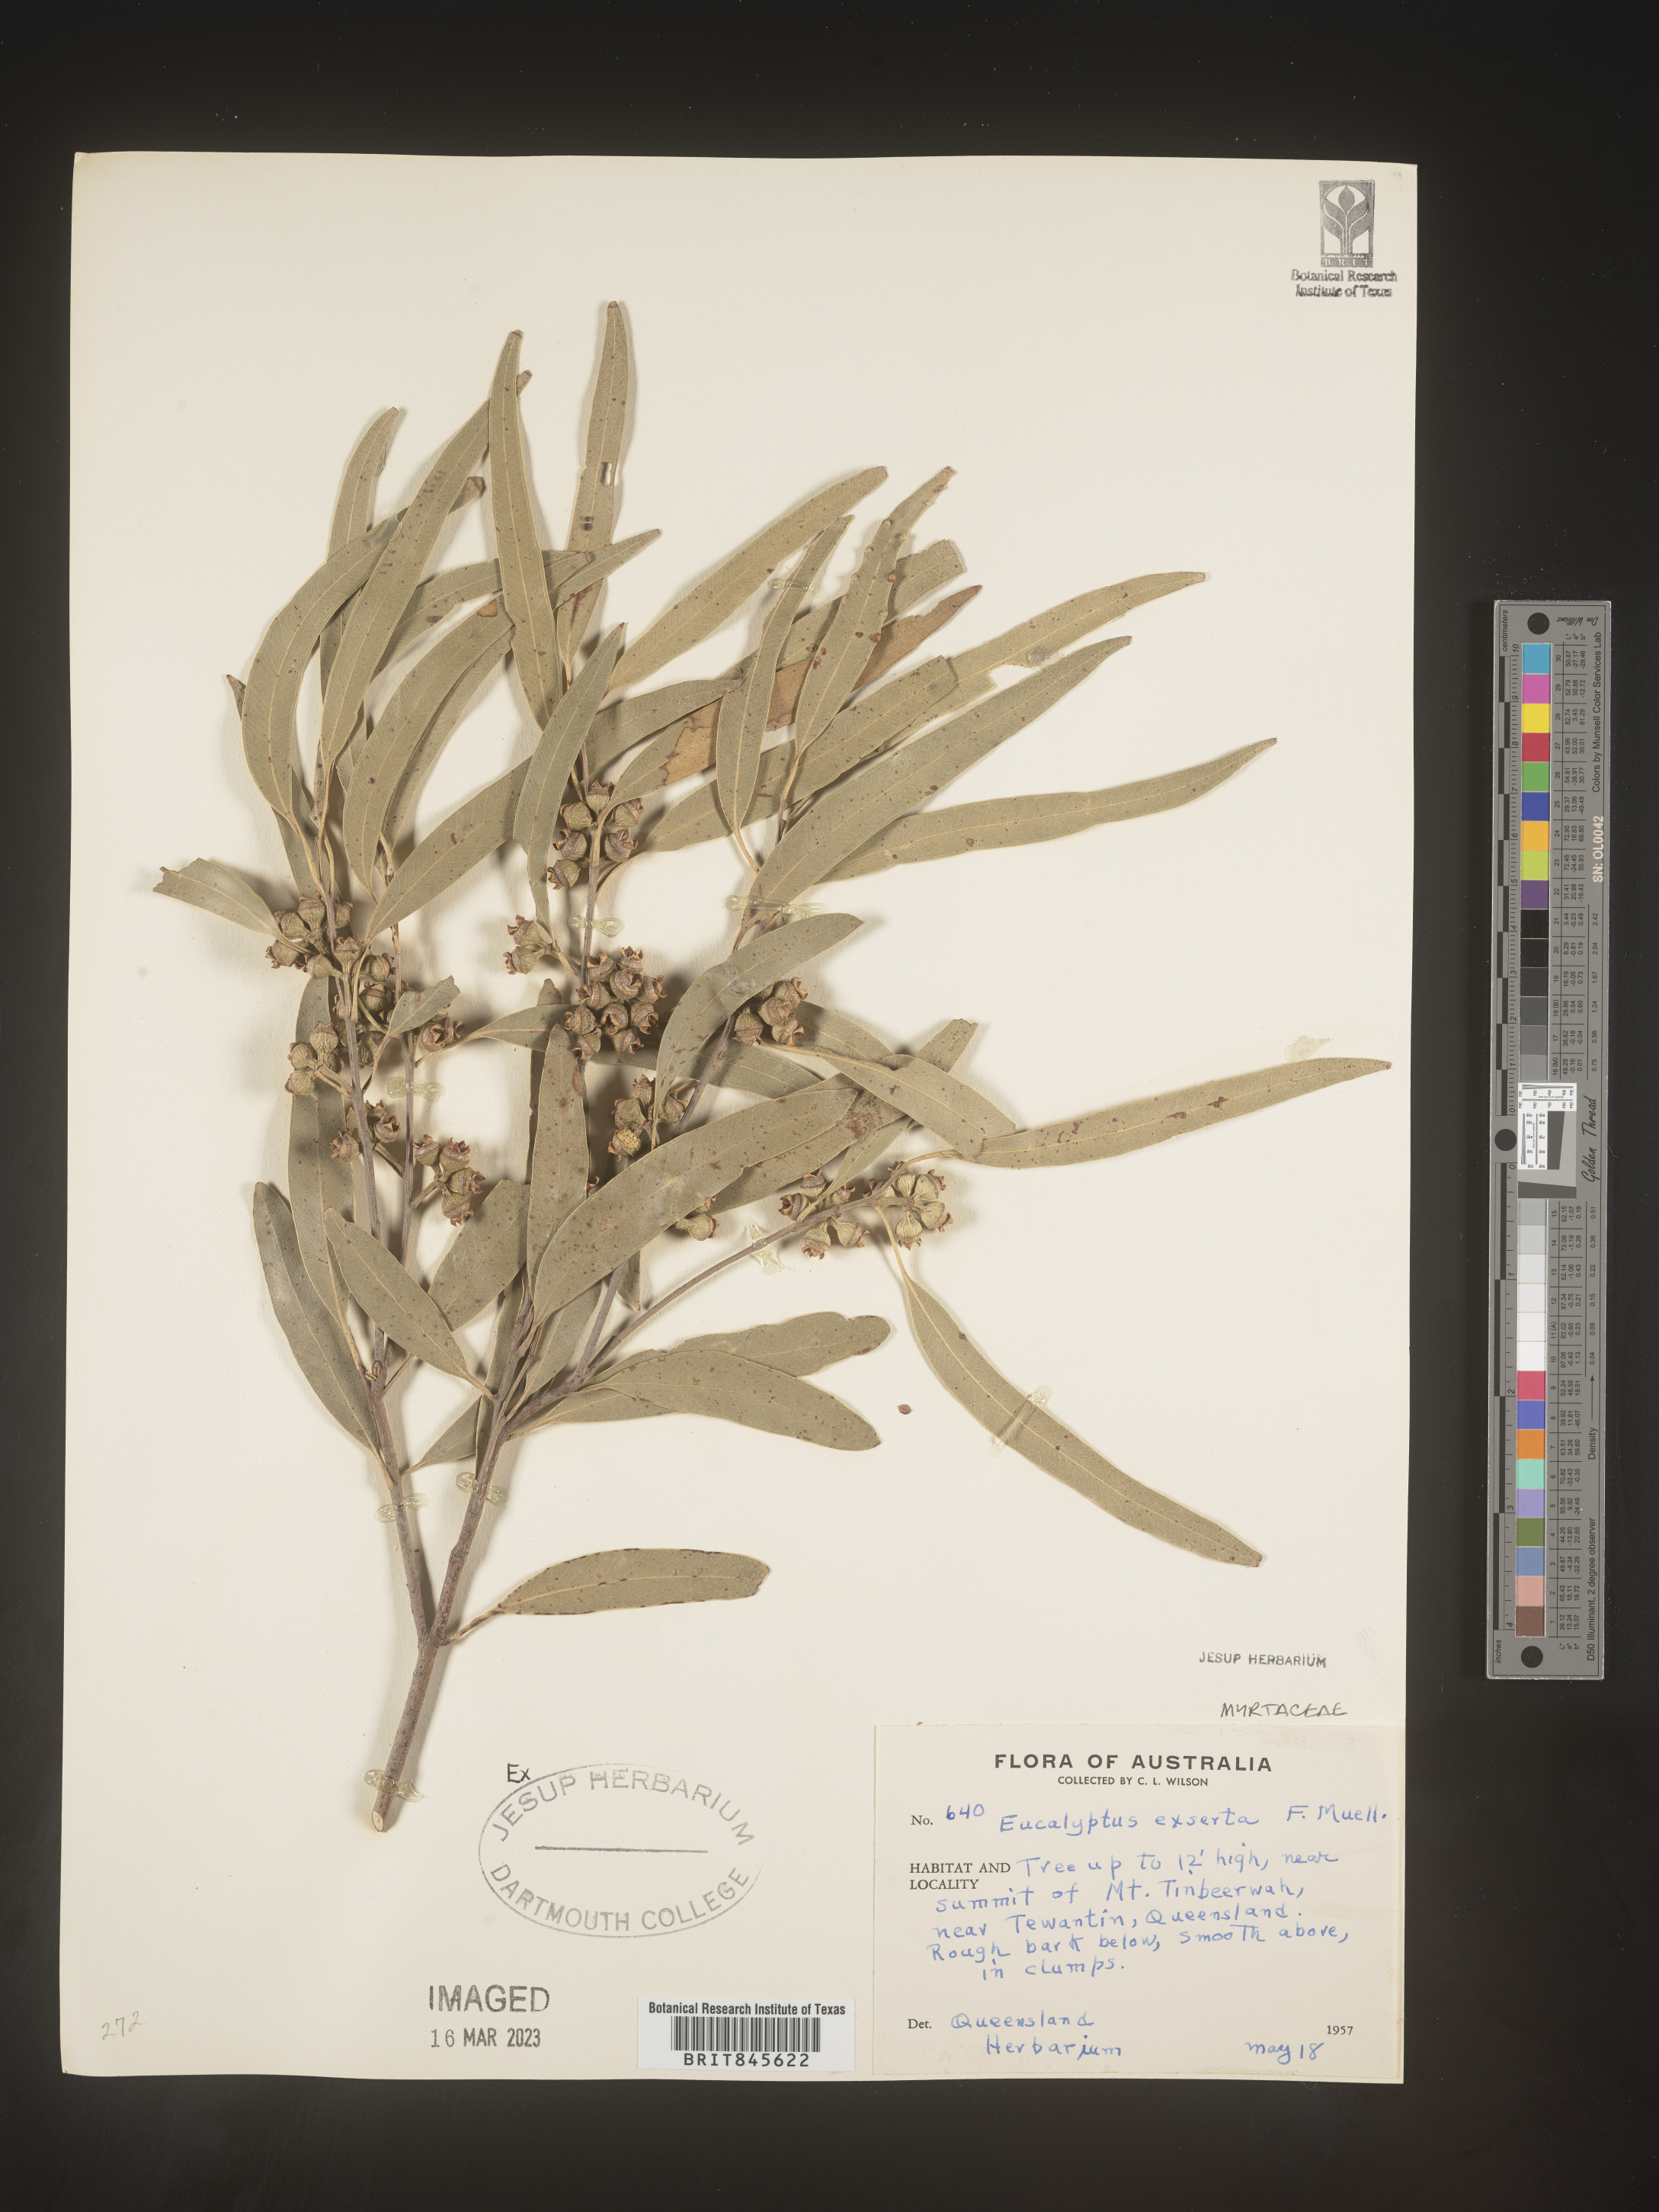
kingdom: Plantae
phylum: Tracheophyta
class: Magnoliopsida
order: Myrtales
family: Myrtaceae
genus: Eucalyptus
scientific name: Eucalyptus
